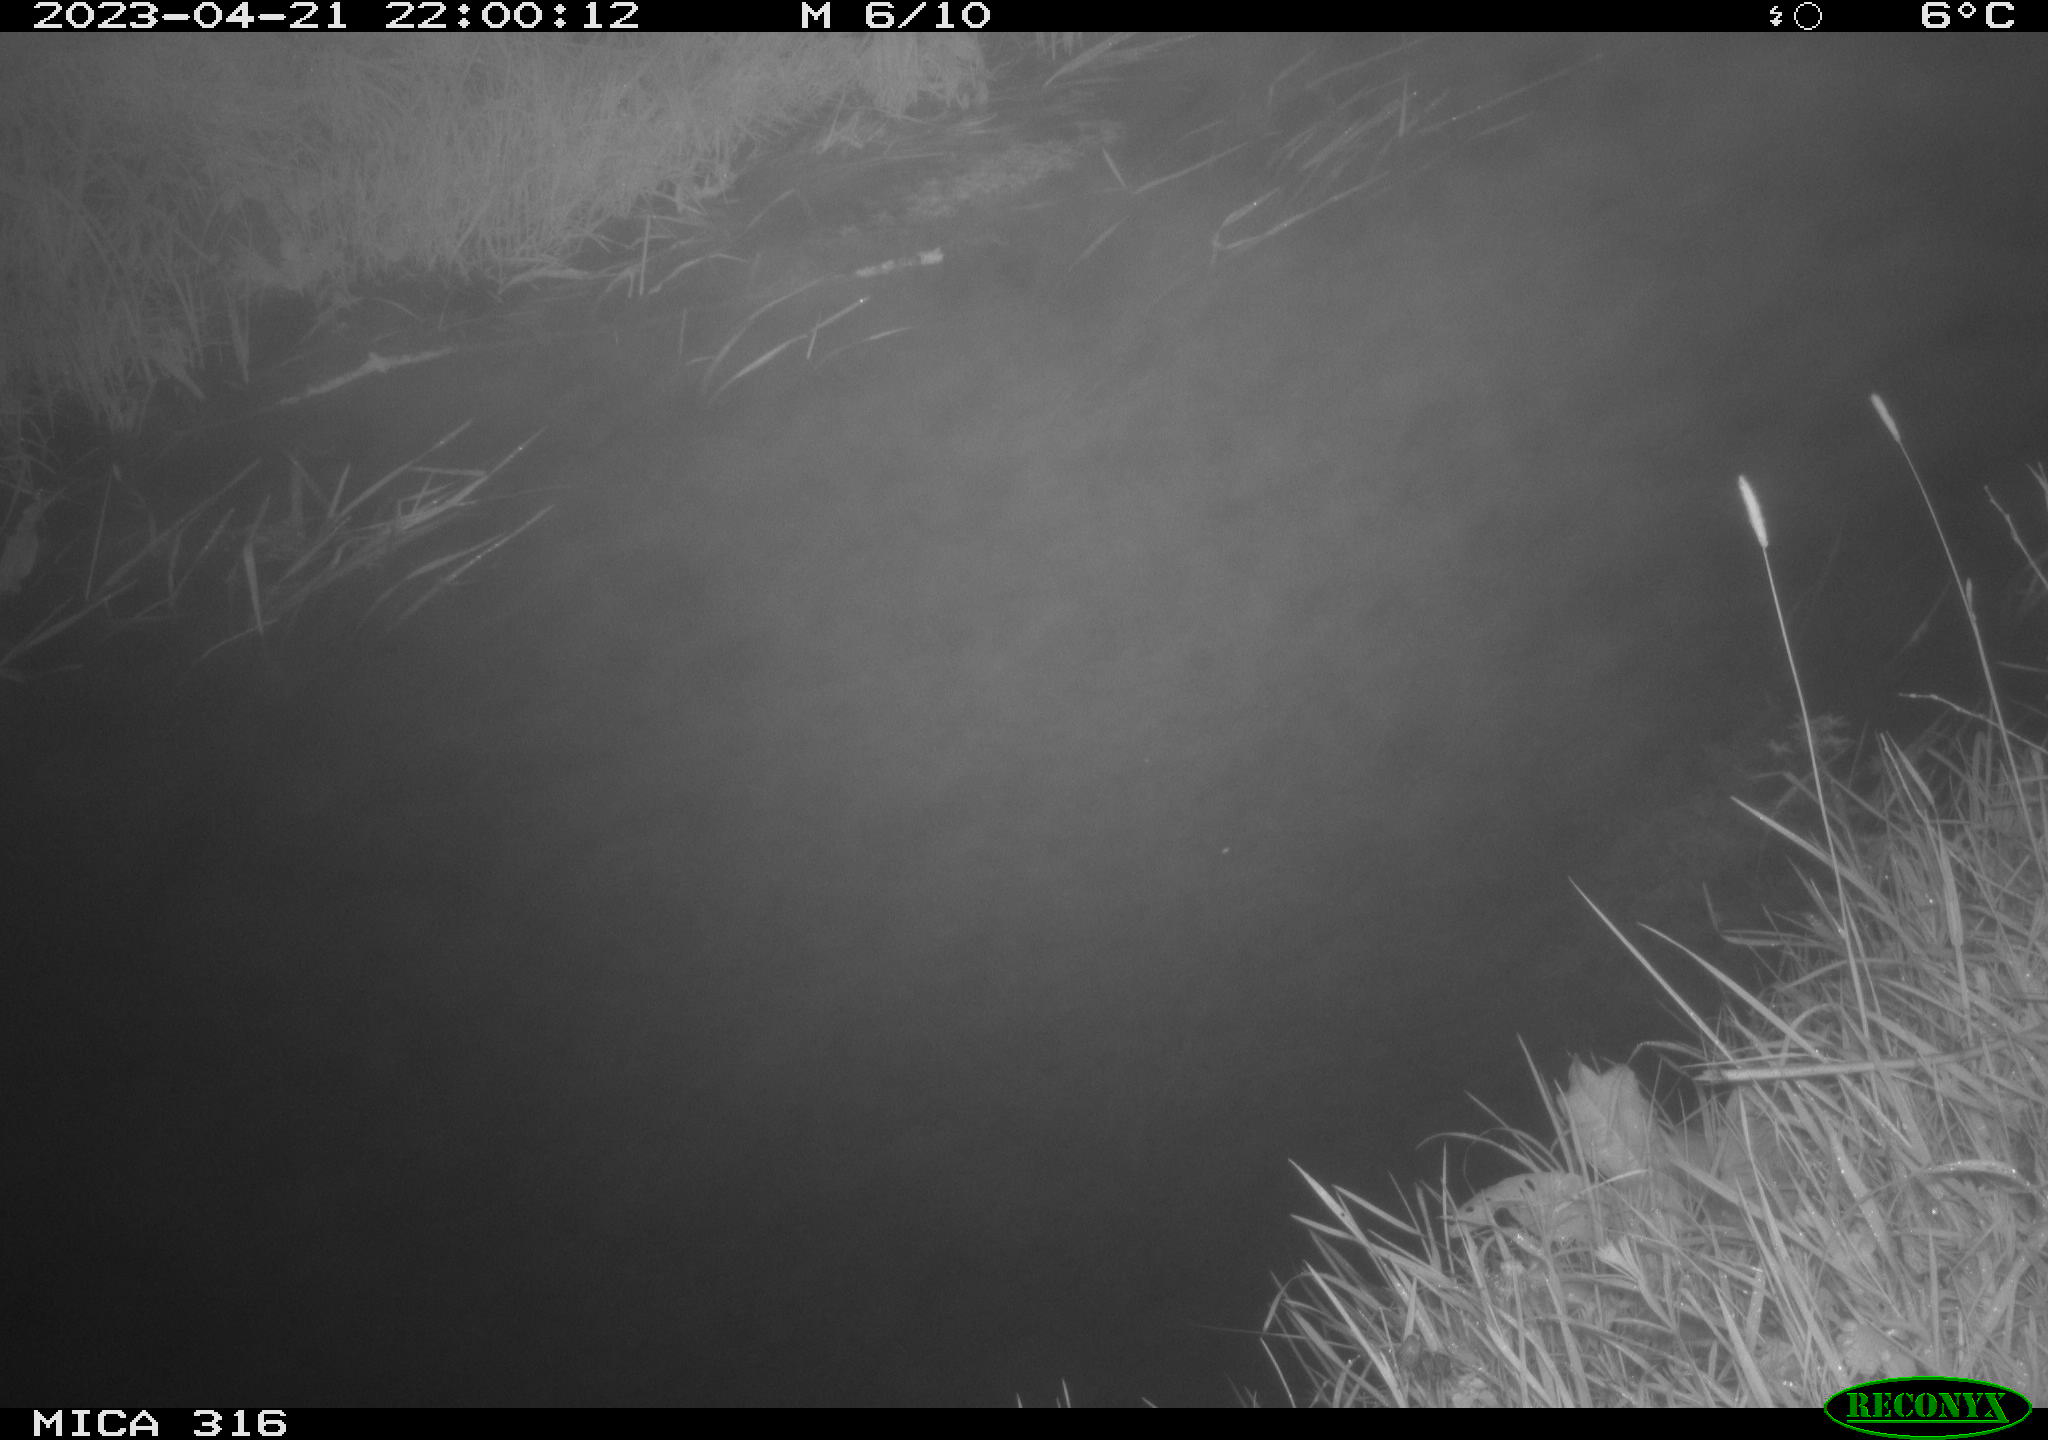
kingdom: Animalia
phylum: Chordata
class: Aves
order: Anseriformes
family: Anatidae
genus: Anas
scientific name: Anas
